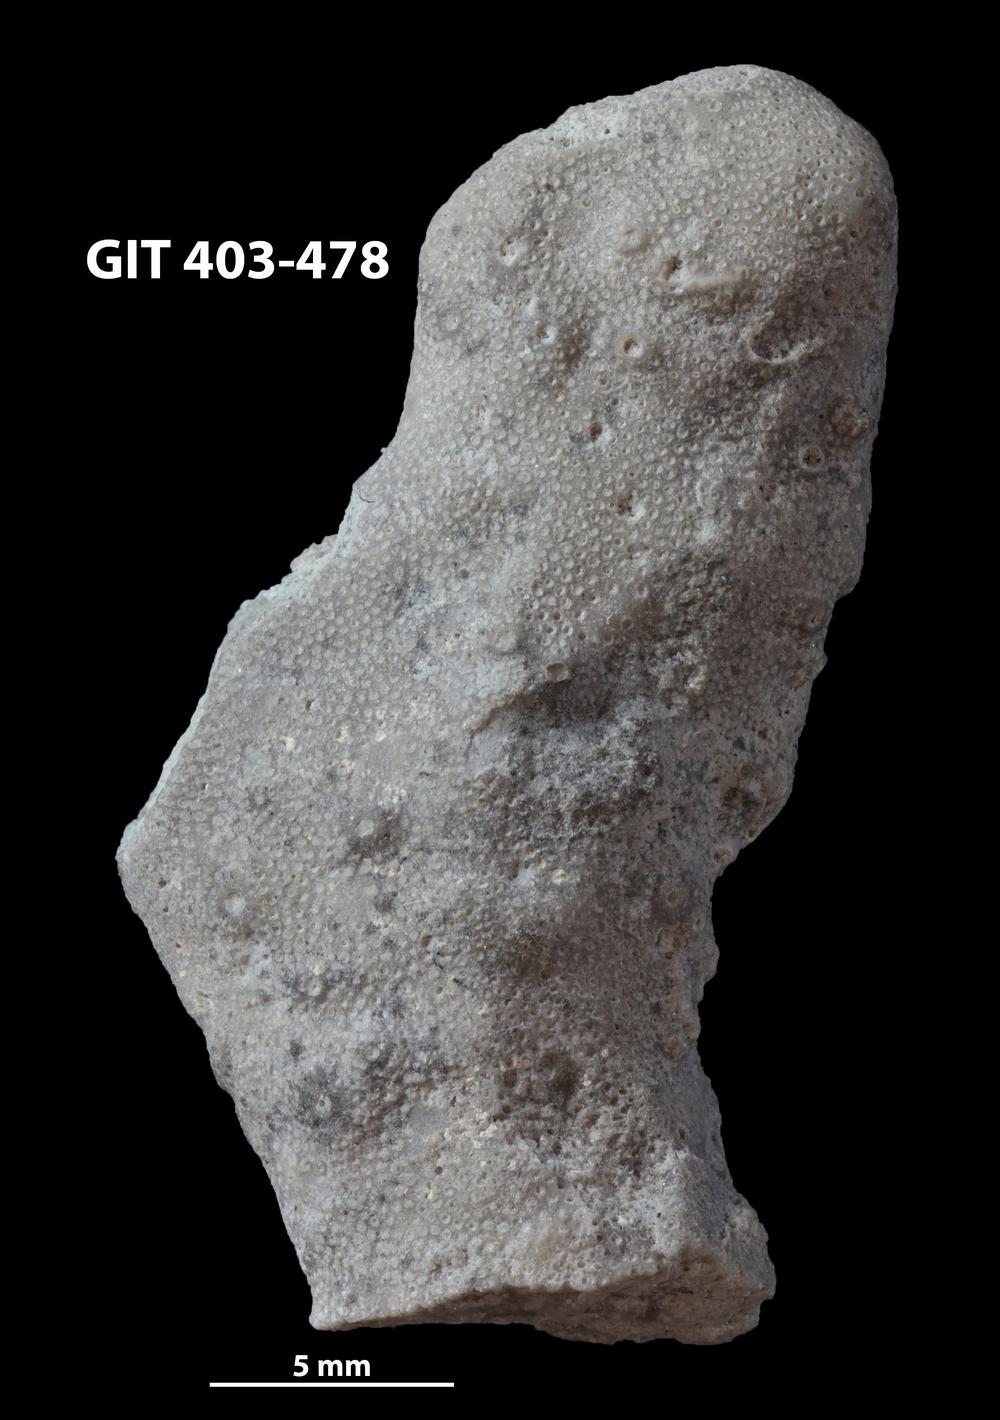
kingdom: Animalia
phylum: Bryozoa
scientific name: Bryozoa
